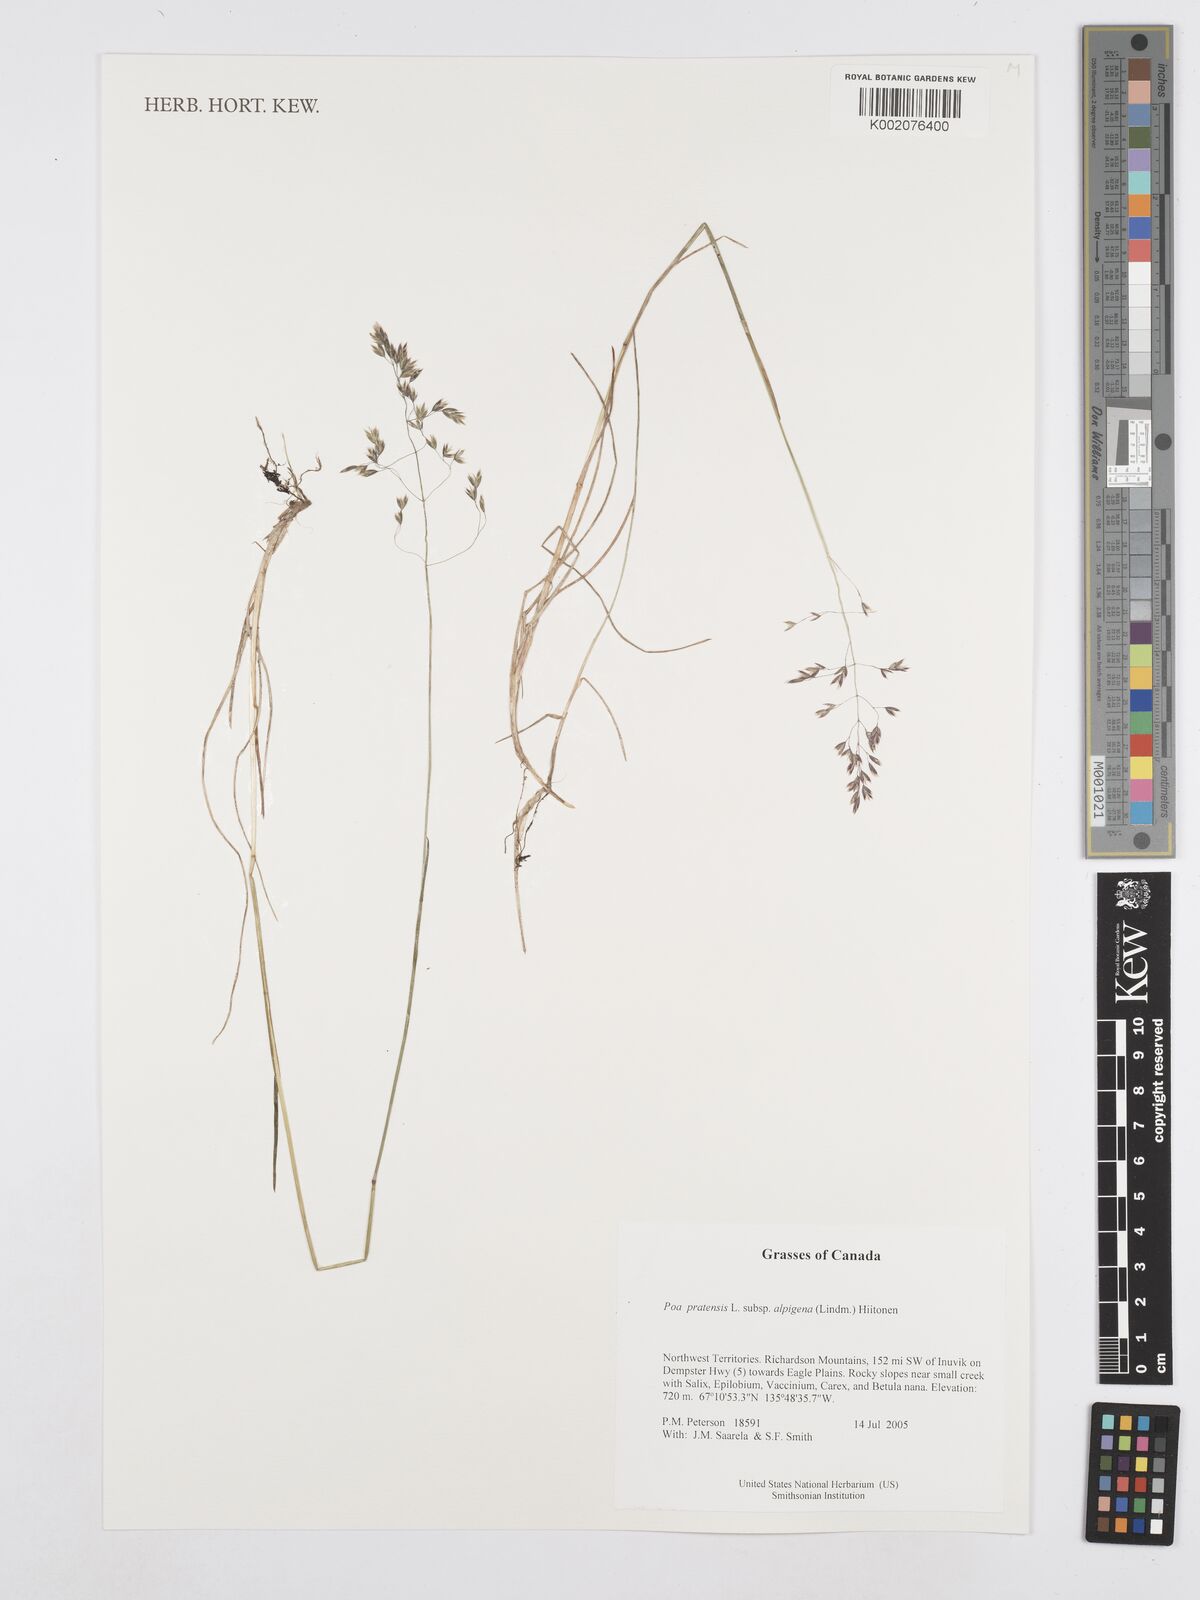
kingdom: Plantae
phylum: Tracheophyta
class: Liliopsida
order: Poales
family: Poaceae
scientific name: Poaceae
